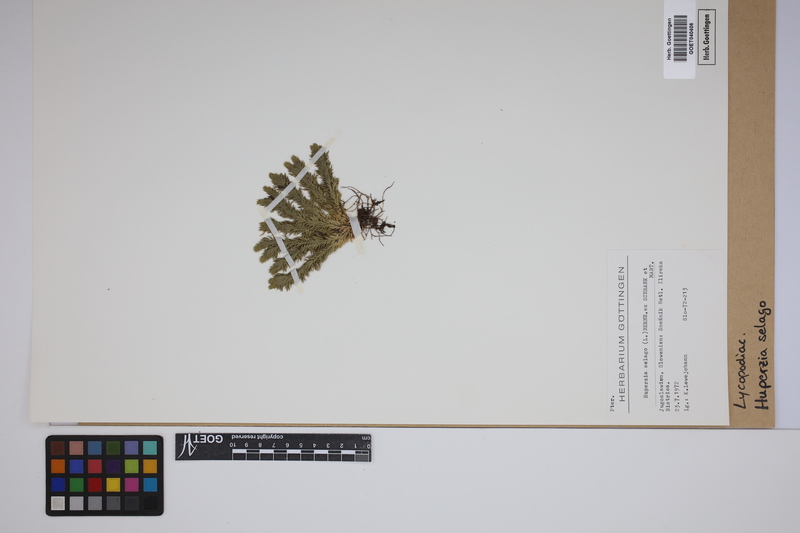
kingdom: Plantae
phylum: Tracheophyta
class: Lycopodiopsida
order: Lycopodiales
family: Lycopodiaceae
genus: Huperzia
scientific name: Huperzia selago
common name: Northern firmoss
